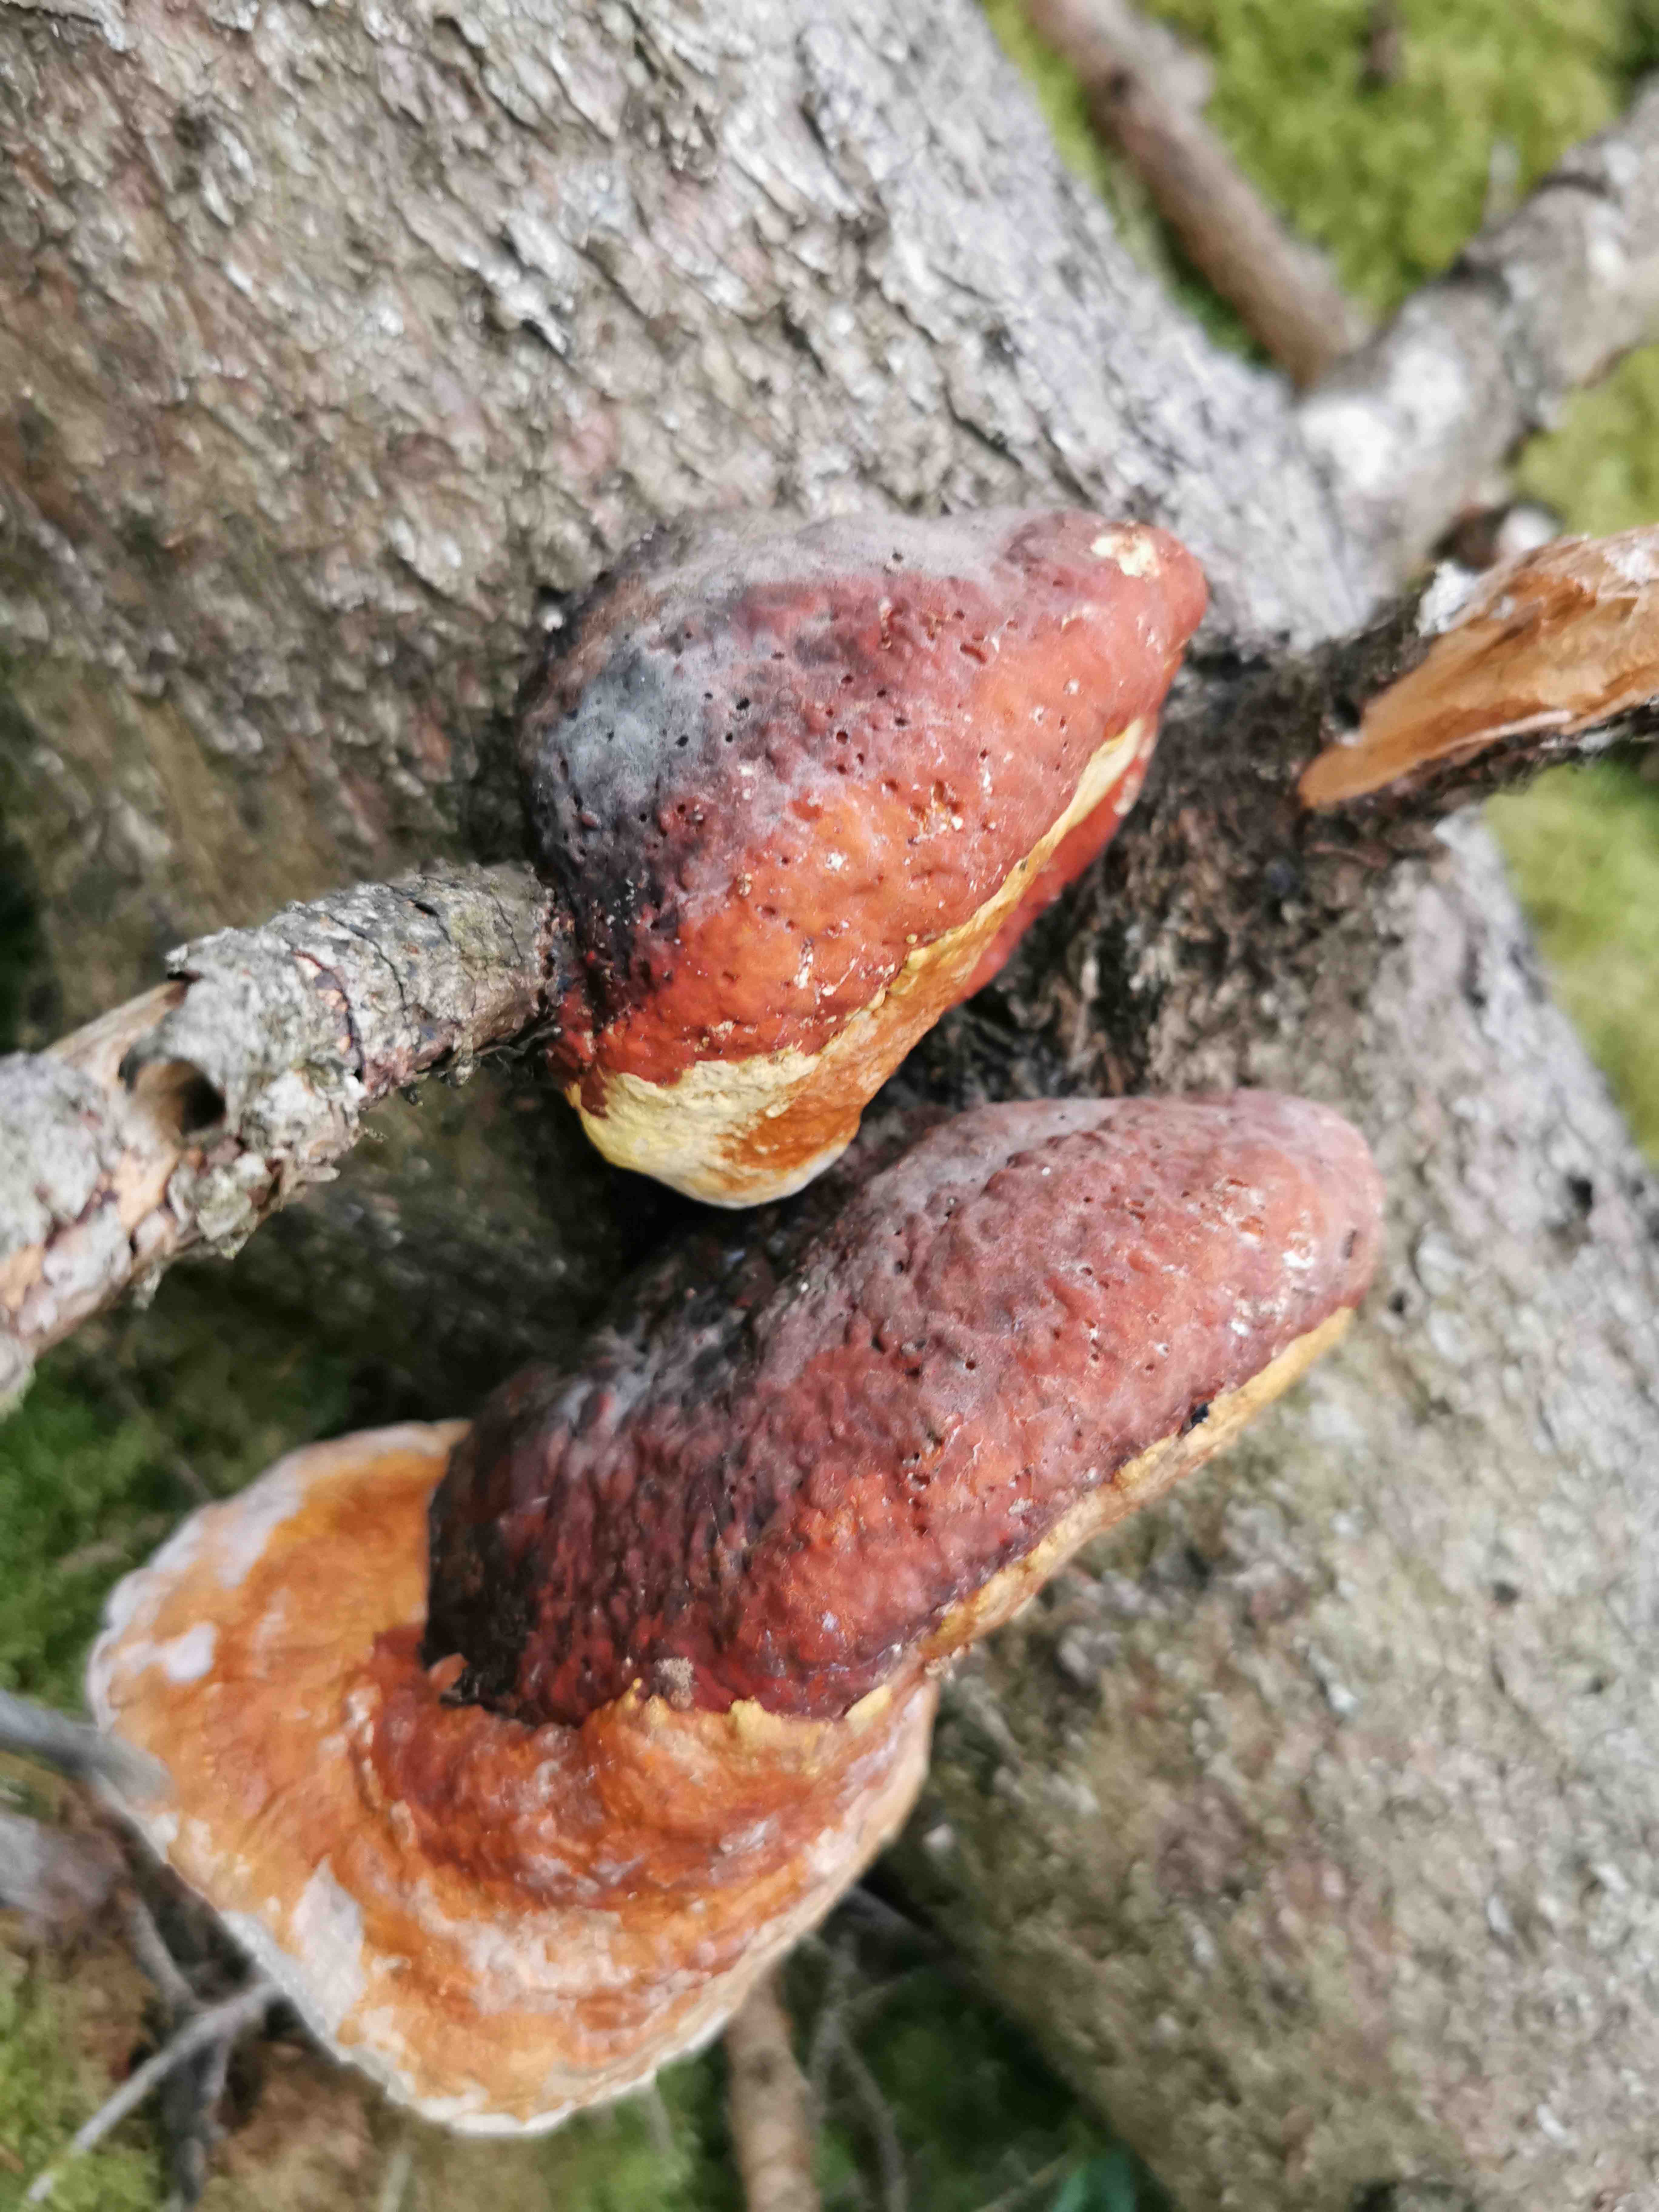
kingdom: Fungi
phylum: Basidiomycota
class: Agaricomycetes
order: Polyporales
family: Fomitopsidaceae
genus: Fomitopsis
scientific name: Fomitopsis pinicola
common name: randbæltet hovporesvamp
